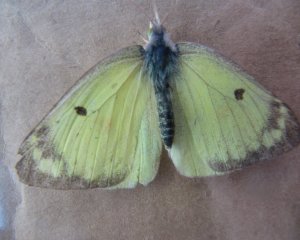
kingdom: Animalia
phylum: Arthropoda
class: Insecta
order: Lepidoptera
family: Pieridae
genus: Colias
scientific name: Colias philodice
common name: Clouded Sulphur
